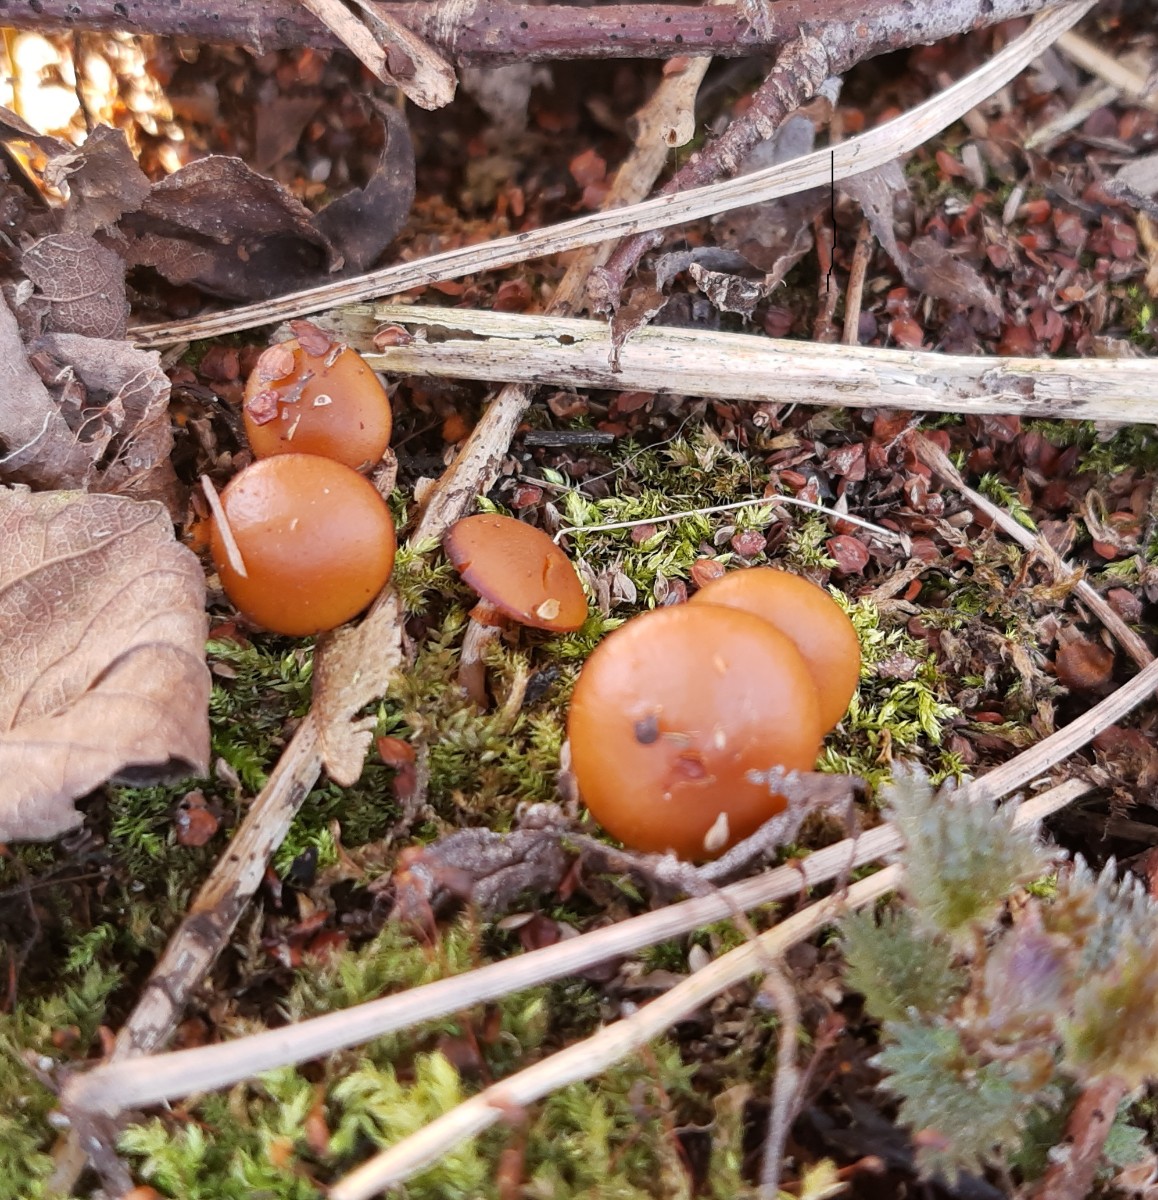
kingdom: Fungi
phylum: Basidiomycota
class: Agaricomycetes
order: Agaricales
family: Hymenogastraceae
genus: Galerina
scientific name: Galerina marginata
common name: randbæltet hjelmhat
